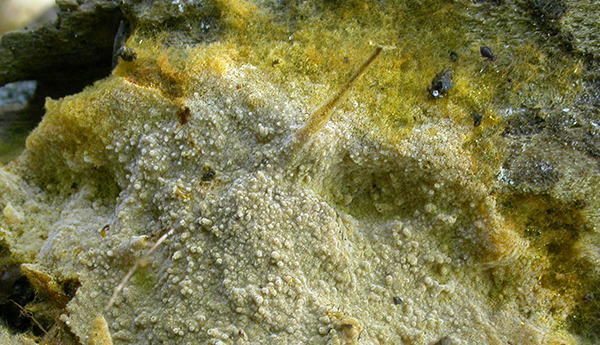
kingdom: Fungi
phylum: Basidiomycota
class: Agaricomycetes
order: Thelephorales
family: Thelephoraceae
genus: Tomentella
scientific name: Tomentella pilosa
